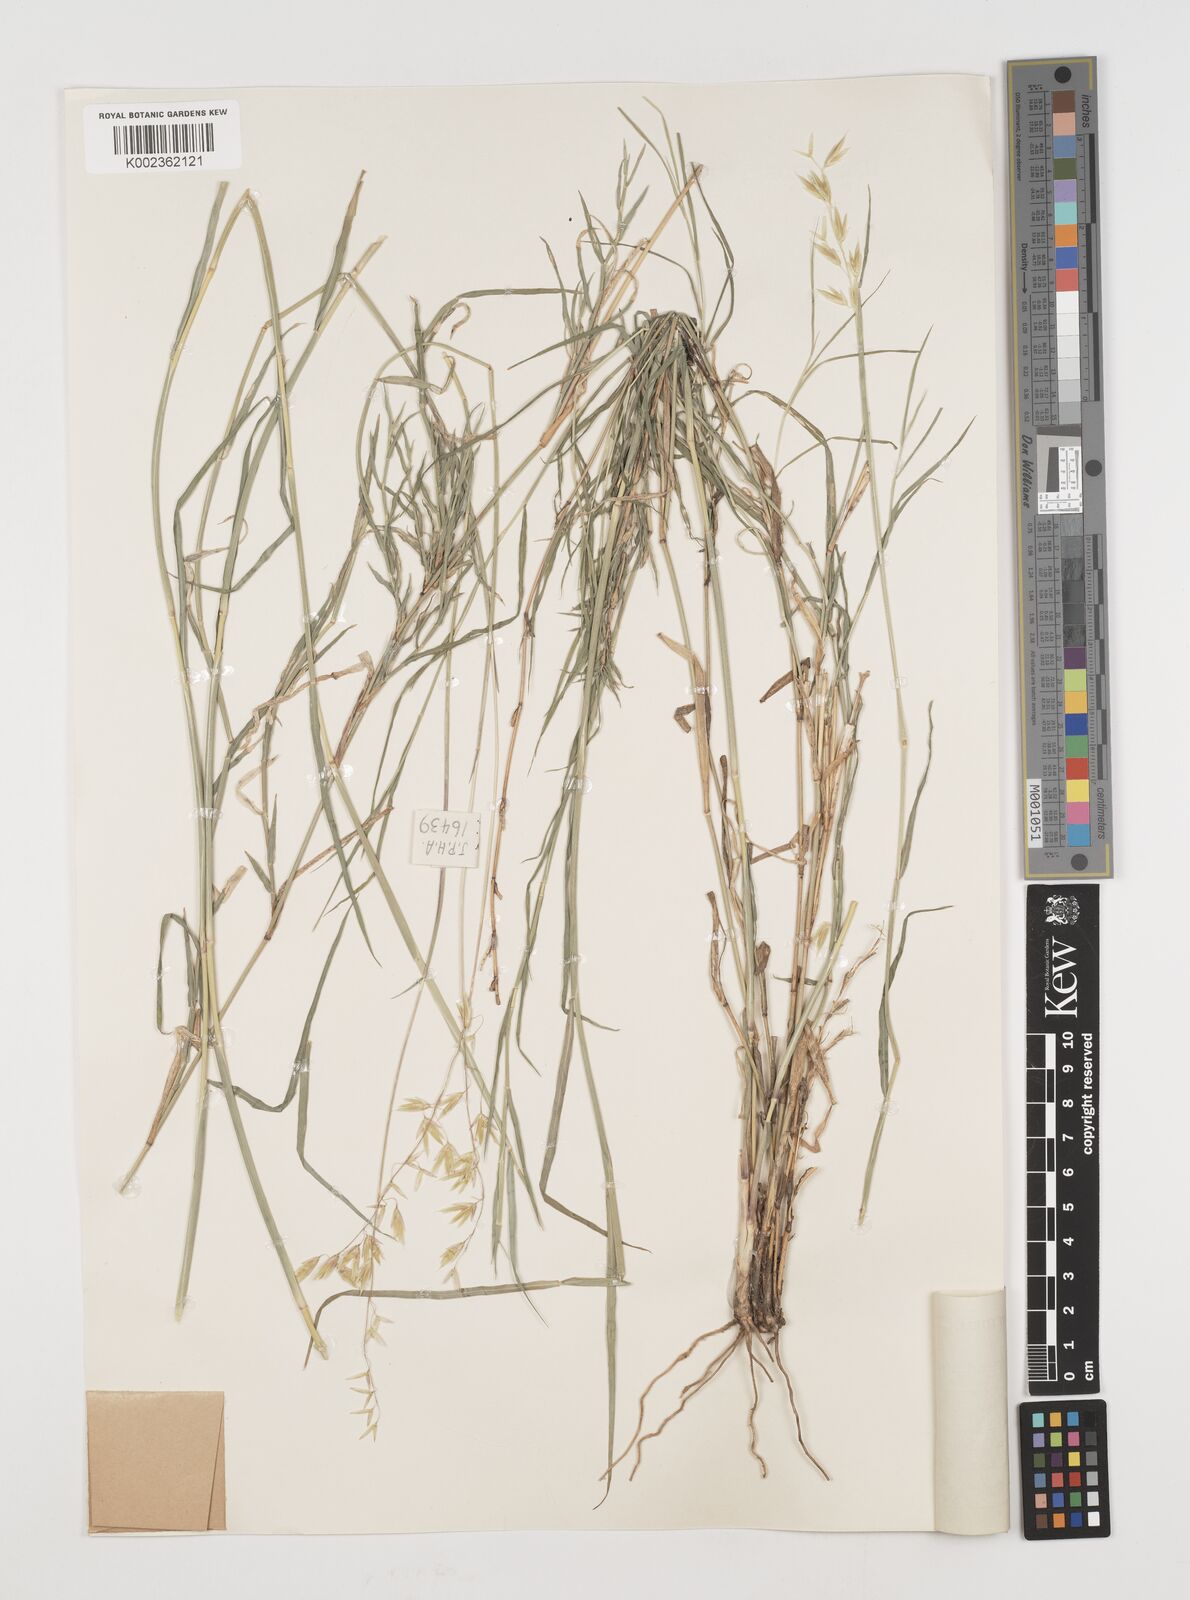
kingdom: Plantae
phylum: Tracheophyta
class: Liliopsida
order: Poales
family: Poaceae
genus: Ehrharta
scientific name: Ehrharta barbinodis
